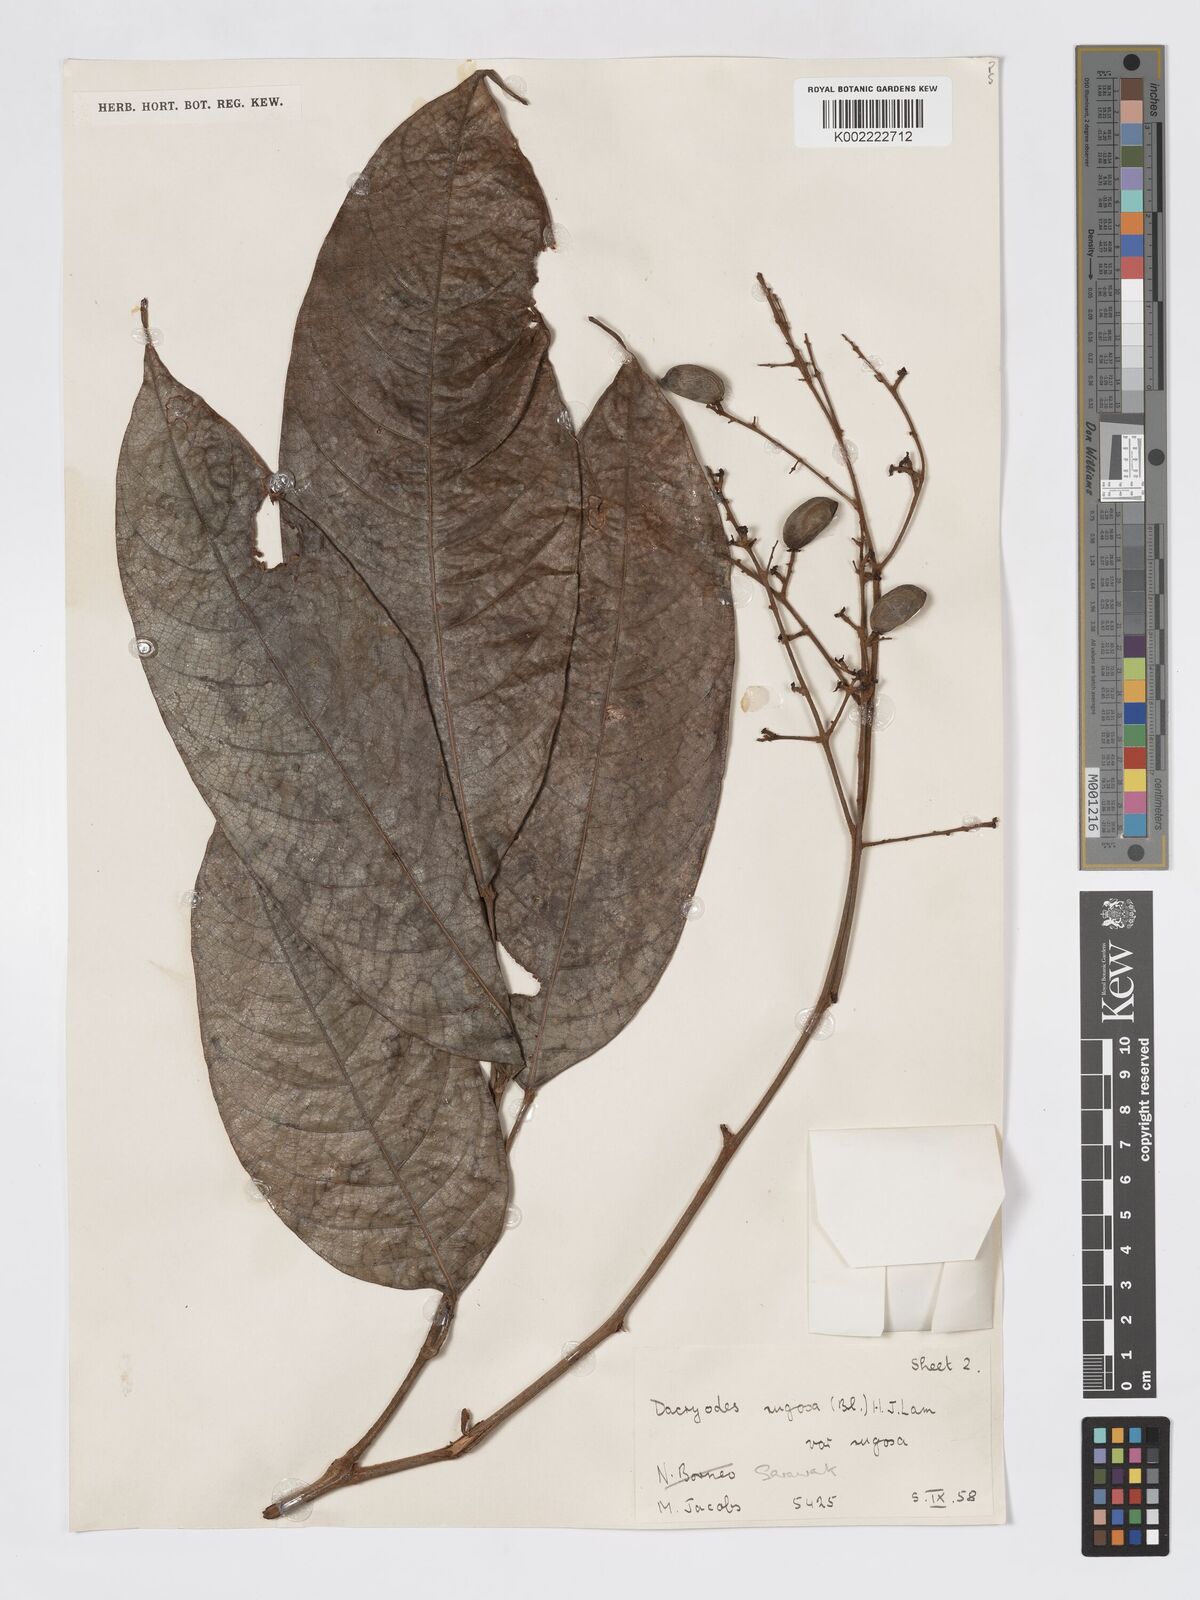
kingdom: Plantae
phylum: Tracheophyta
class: Magnoliopsida
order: Sapindales
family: Burseraceae
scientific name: Burseraceae
